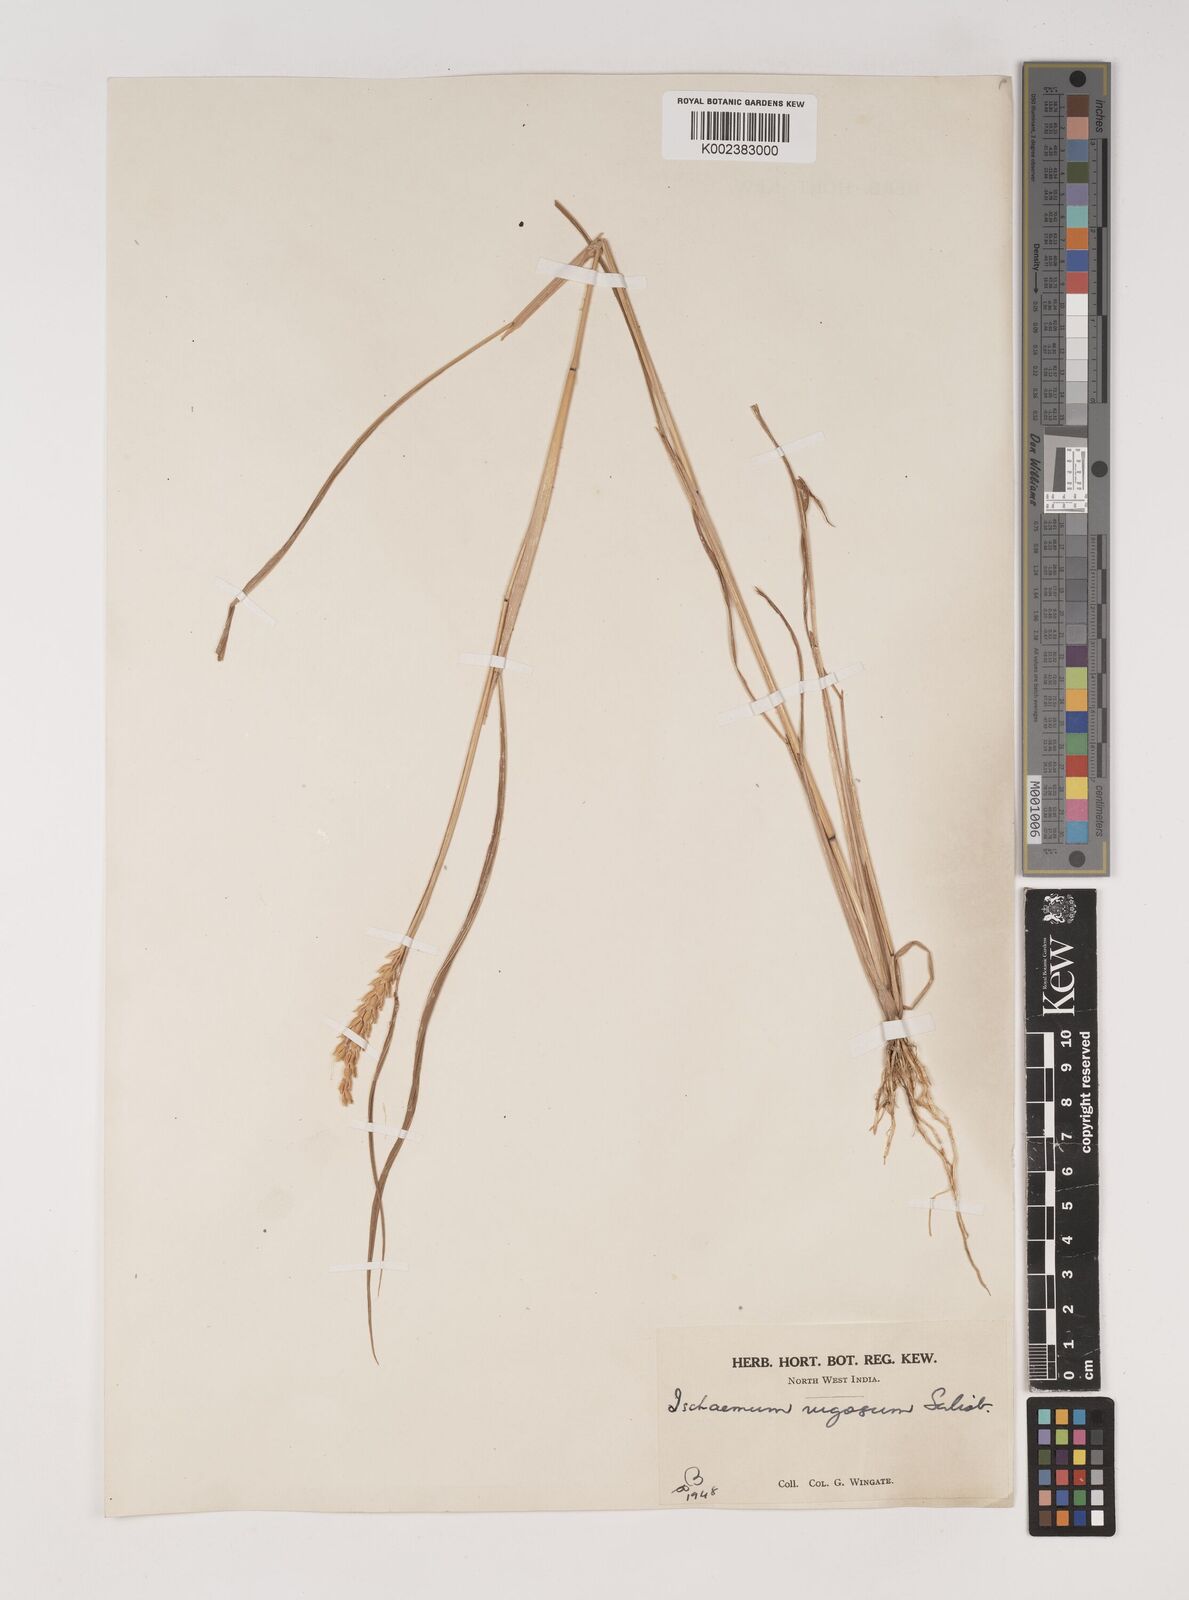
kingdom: Plantae
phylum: Tracheophyta
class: Liliopsida
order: Poales
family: Poaceae
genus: Ischaemum
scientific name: Ischaemum rugosum
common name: Saramatta grass
